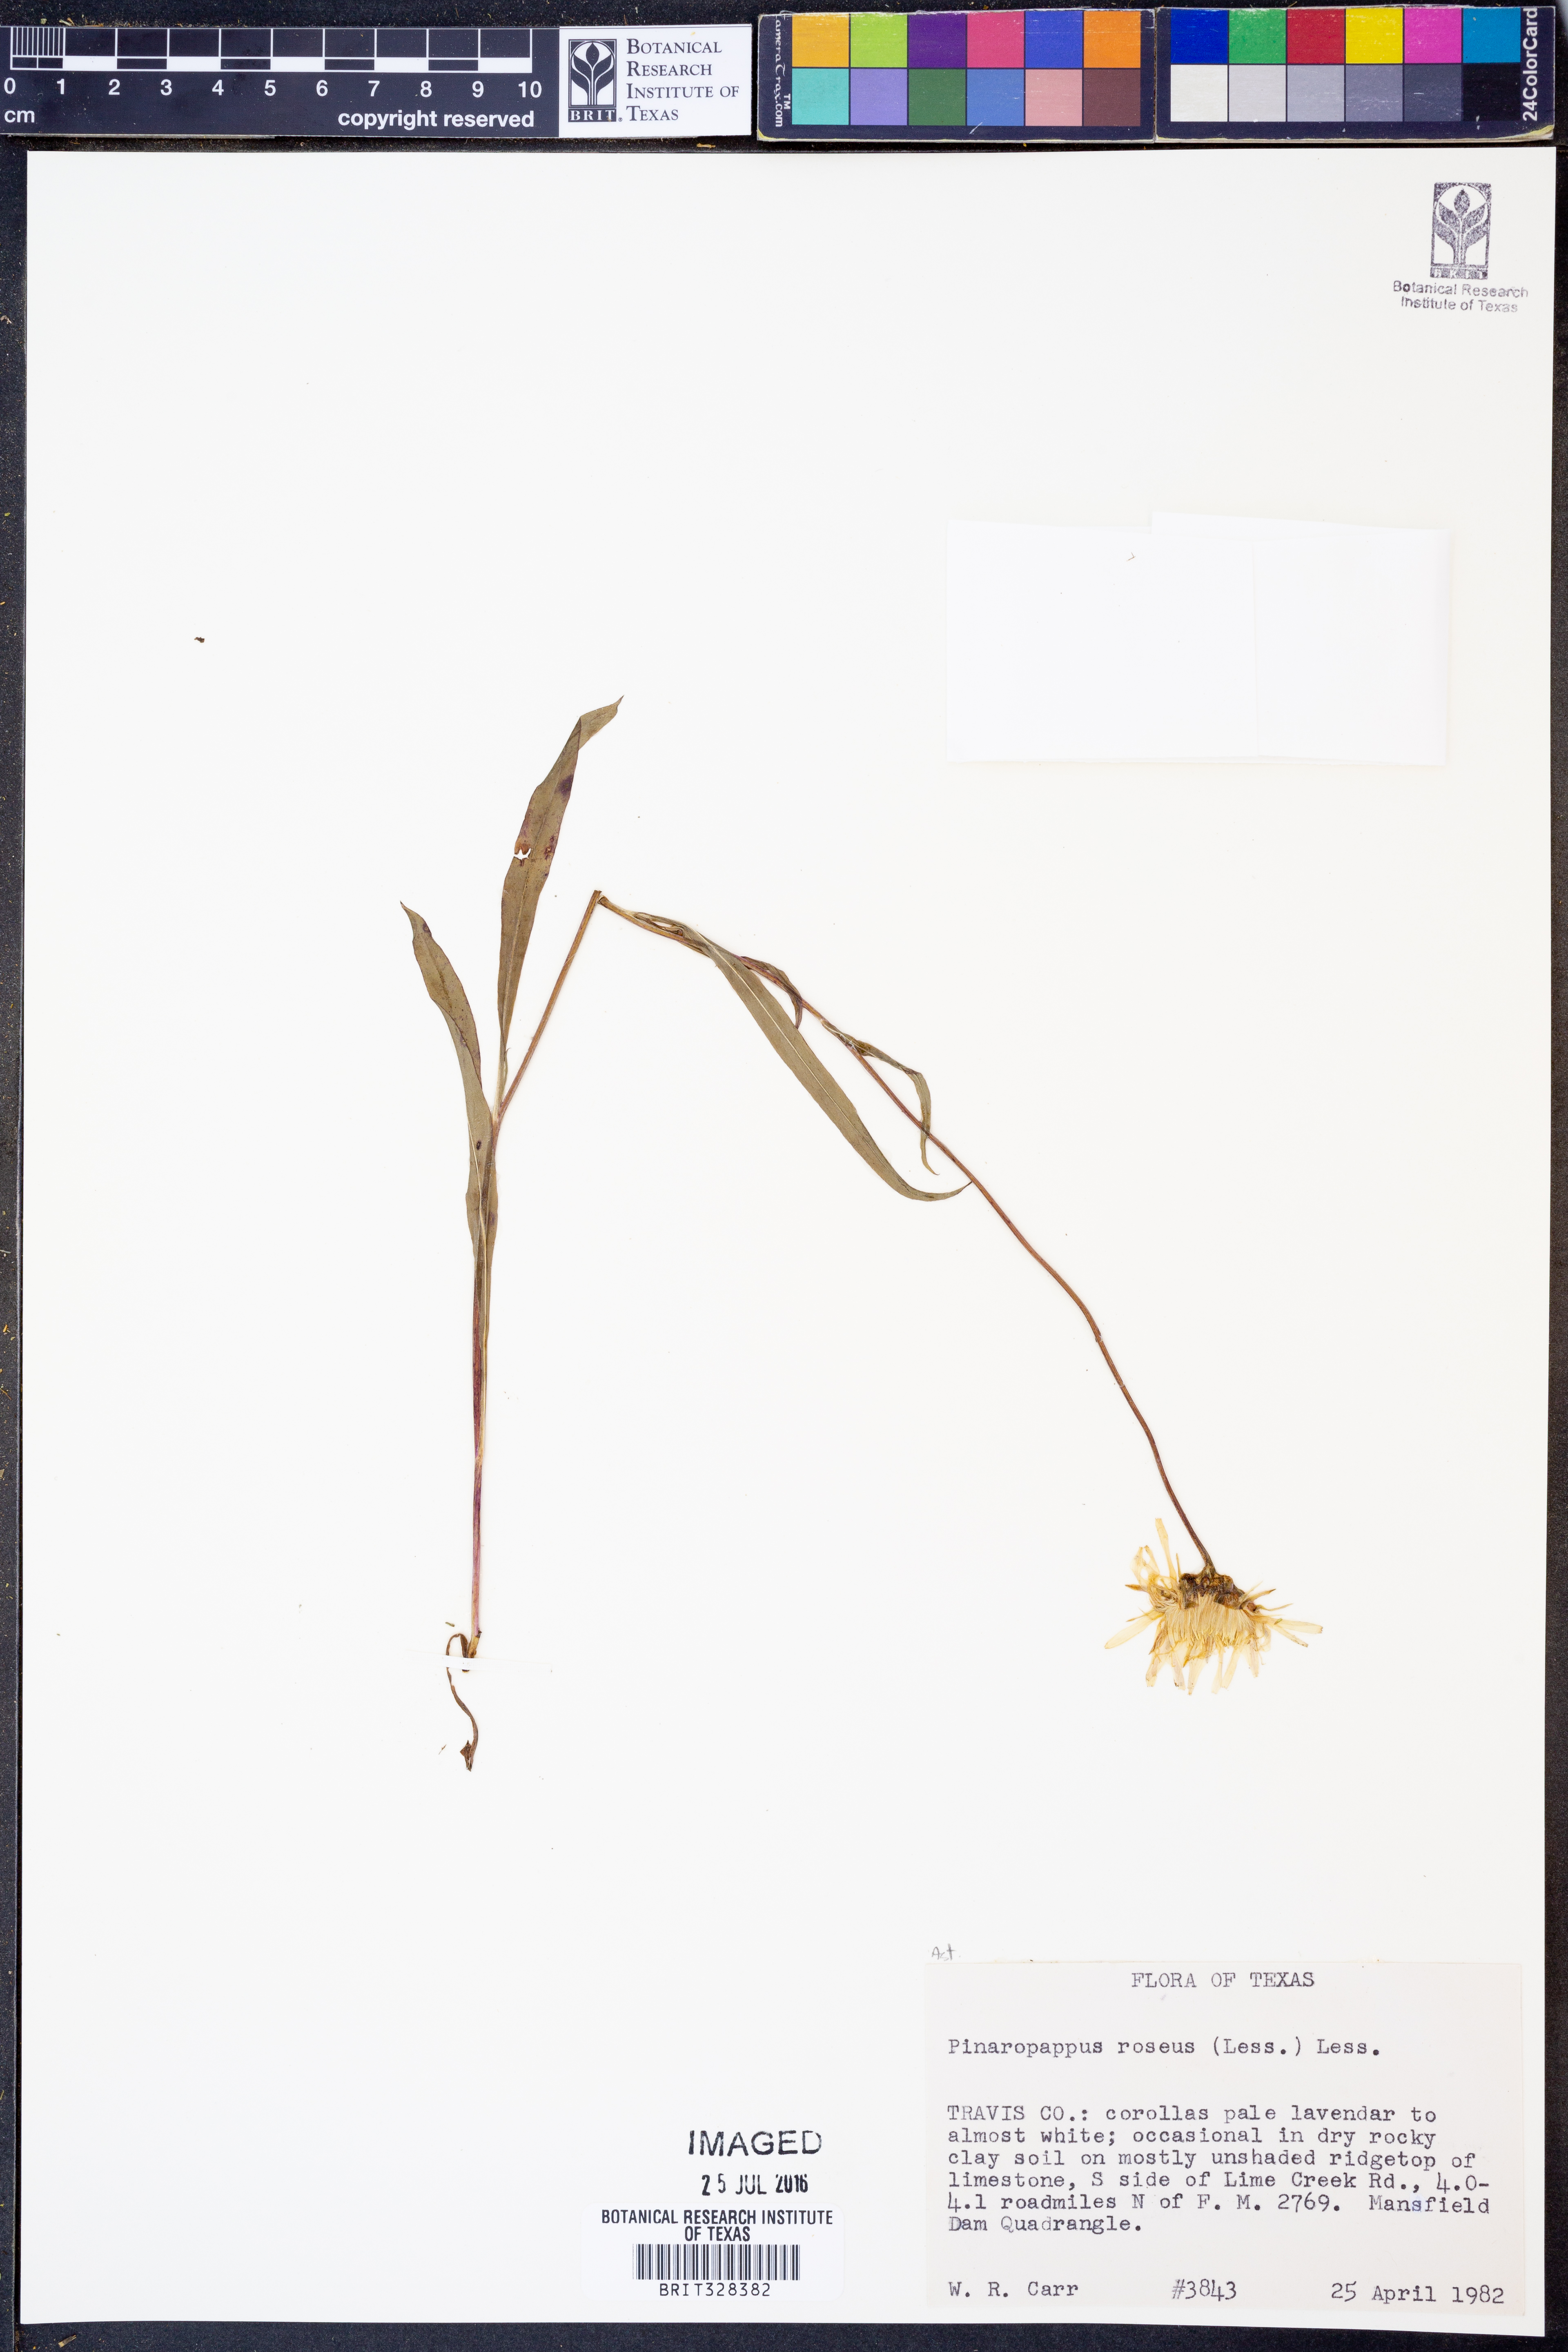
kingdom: Plantae
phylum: Tracheophyta
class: Magnoliopsida
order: Asterales
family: Asteraceae
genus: Pinaropappus
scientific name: Pinaropappus roseus
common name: Rock-lettuce
